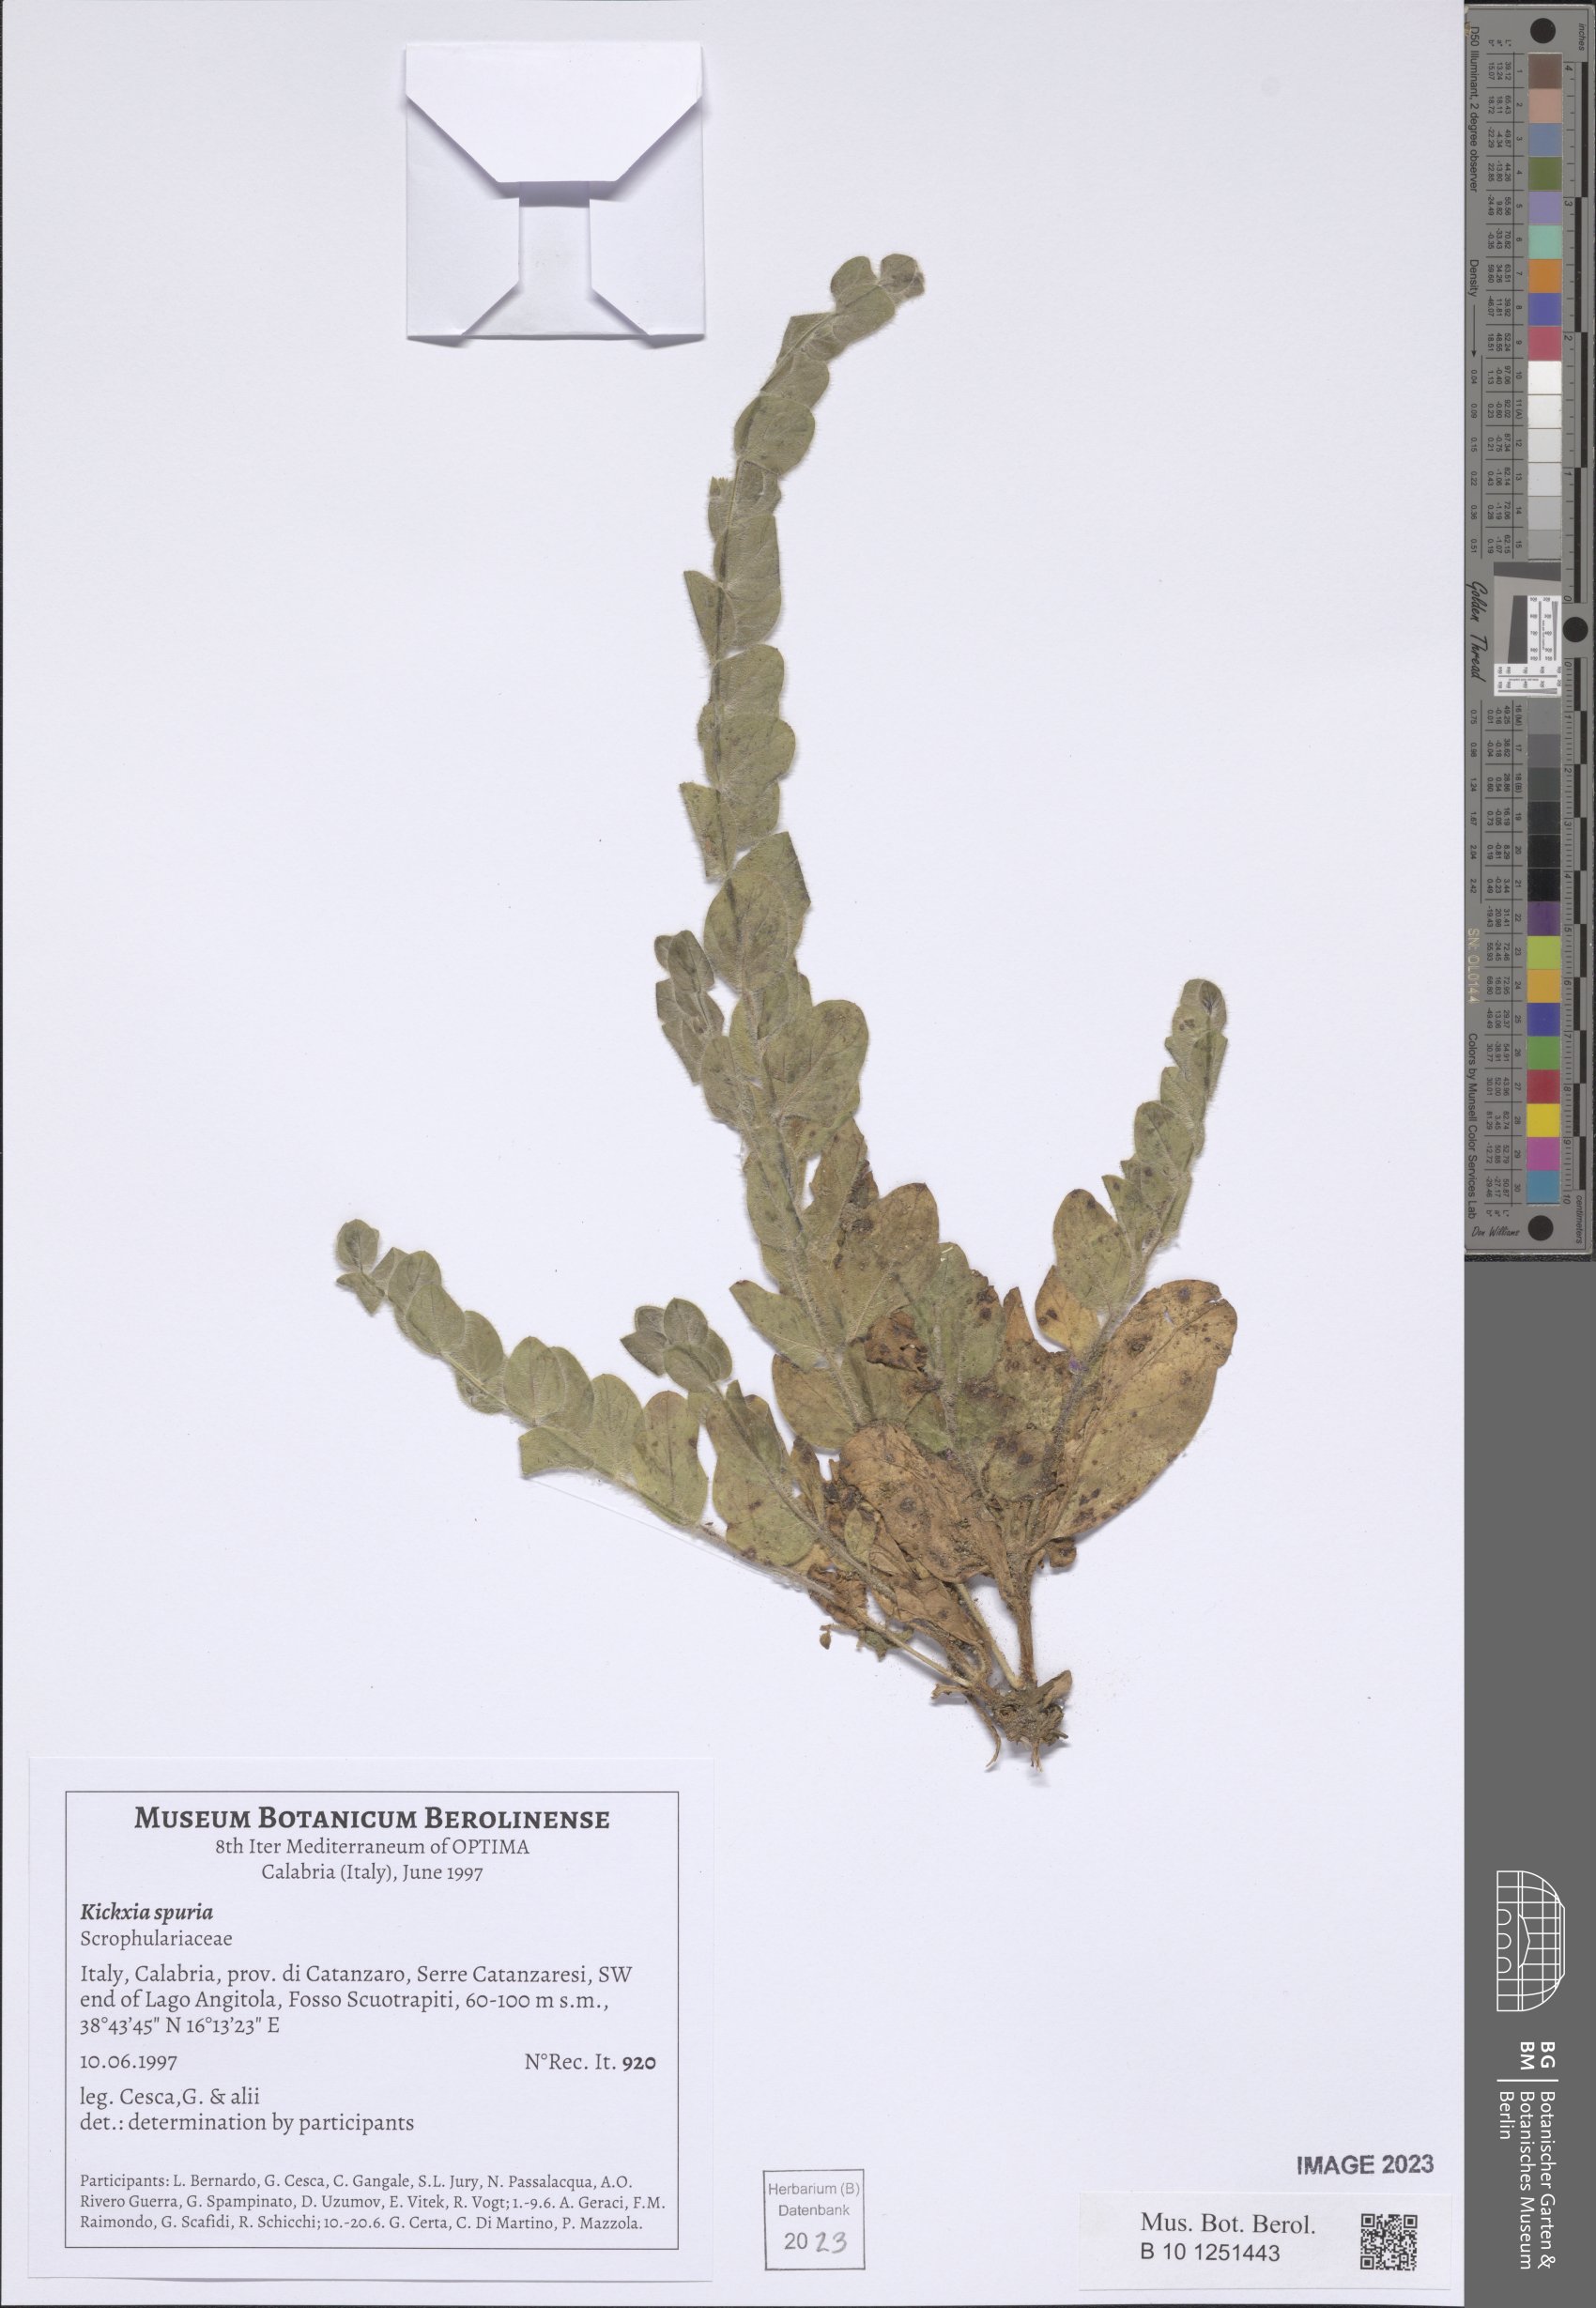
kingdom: Plantae
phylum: Tracheophyta
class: Magnoliopsida
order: Lamiales
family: Plantaginaceae
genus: Kickxia
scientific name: Kickxia spuria
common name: Round-leaved fluellen
